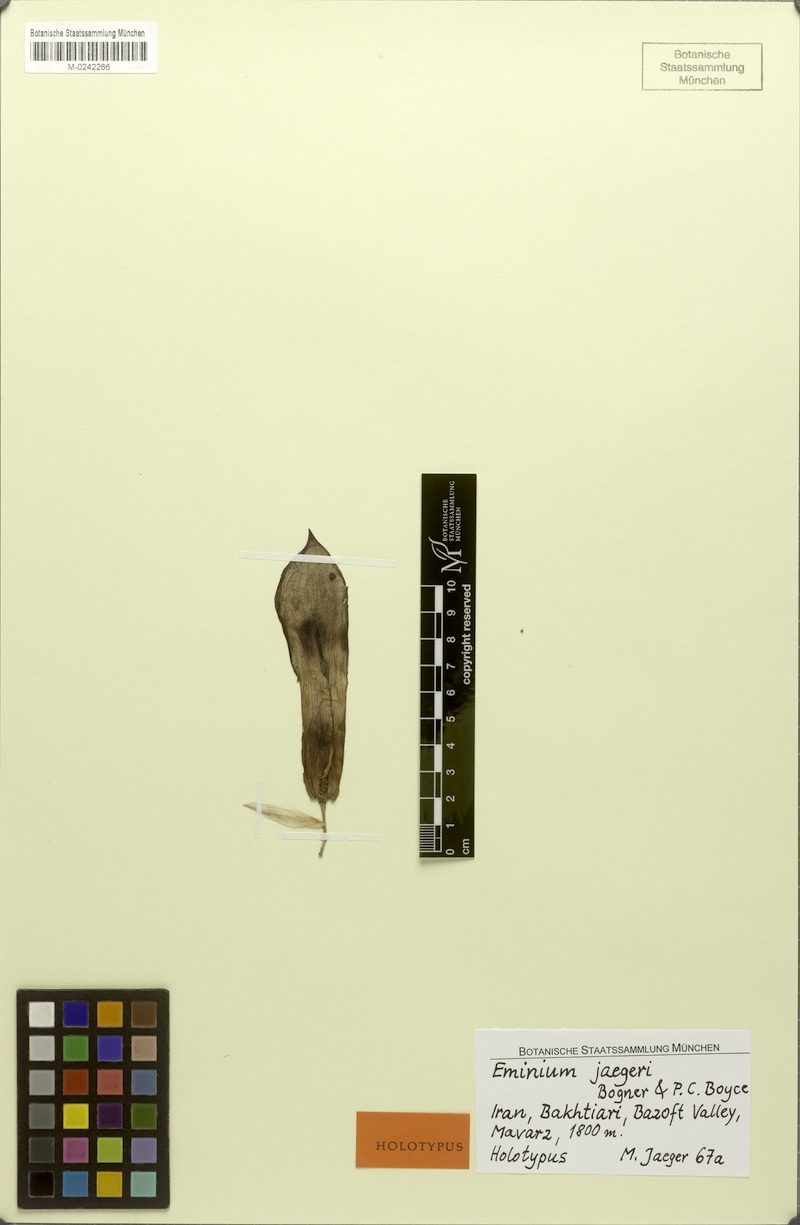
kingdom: Plantae
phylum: Tracheophyta
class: Liliopsida
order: Alismatales
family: Araceae
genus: Eminium
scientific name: Eminium jaegeri
